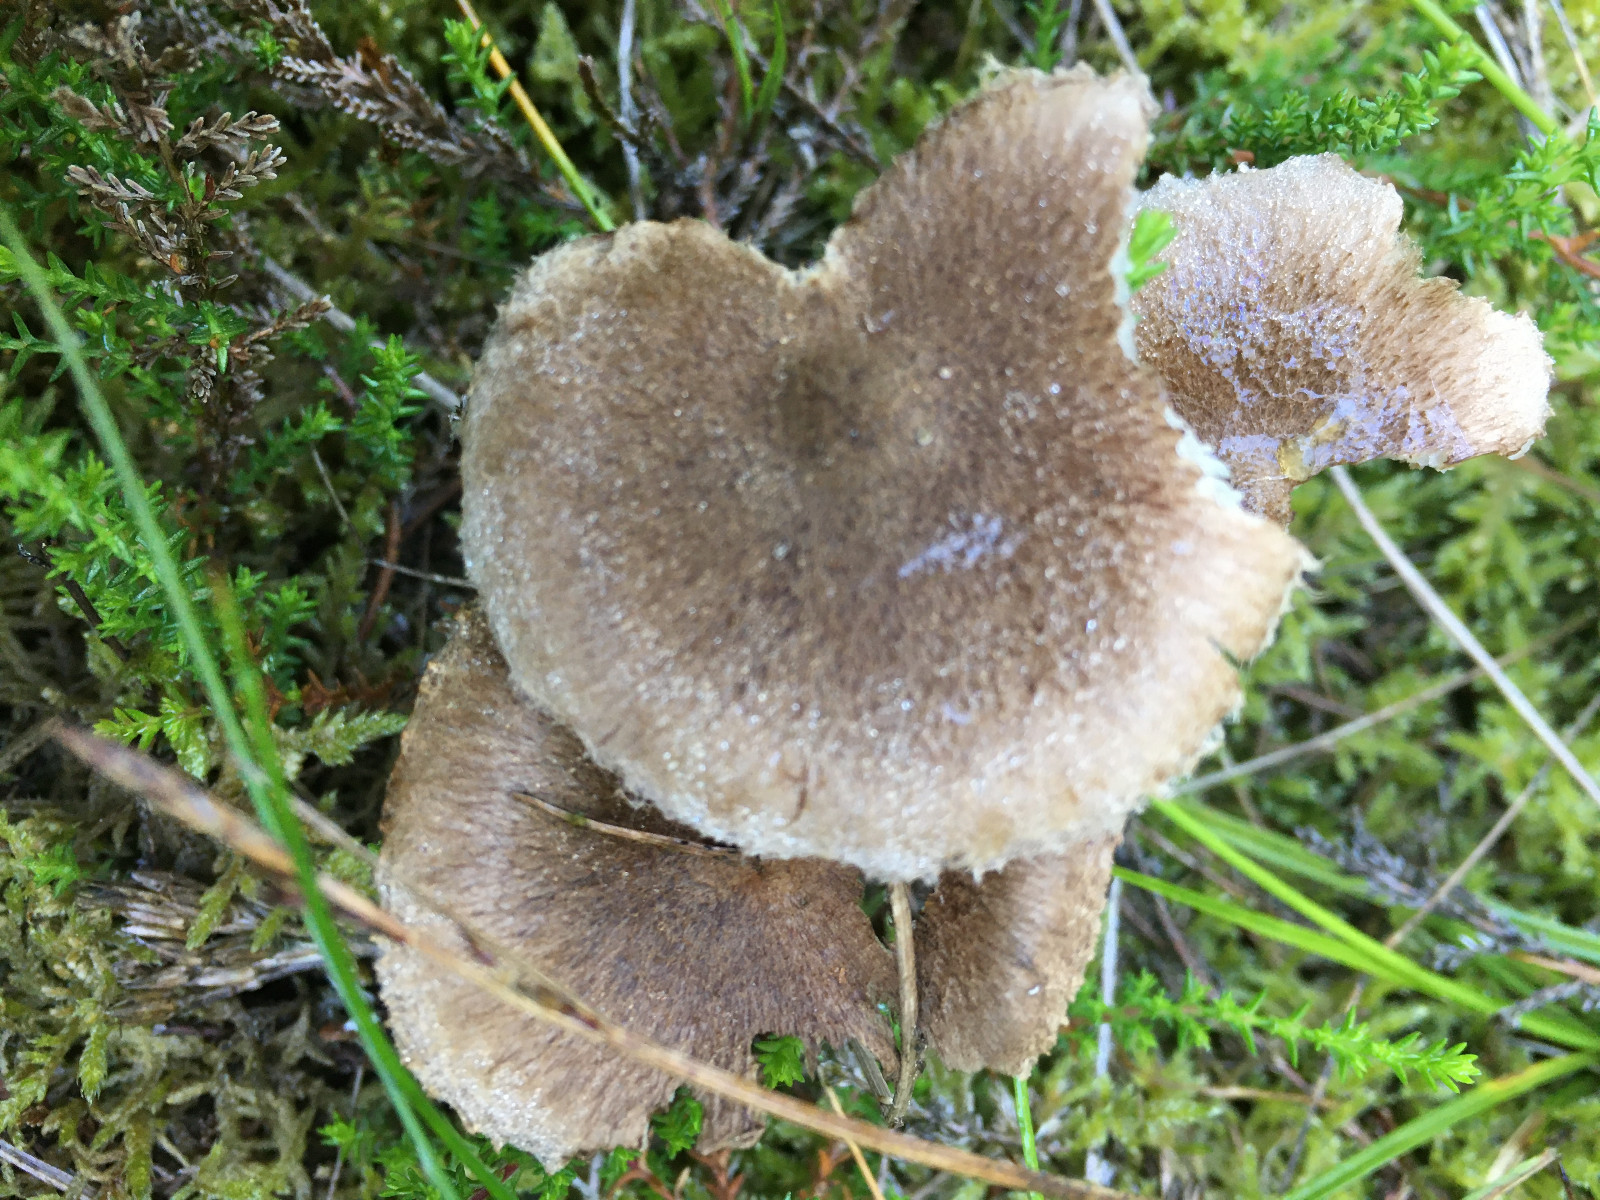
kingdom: Fungi
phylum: Basidiomycota
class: Agaricomycetes
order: Agaricales
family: Inocybaceae
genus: Inocybe
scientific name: Inocybe
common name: trævlhat
